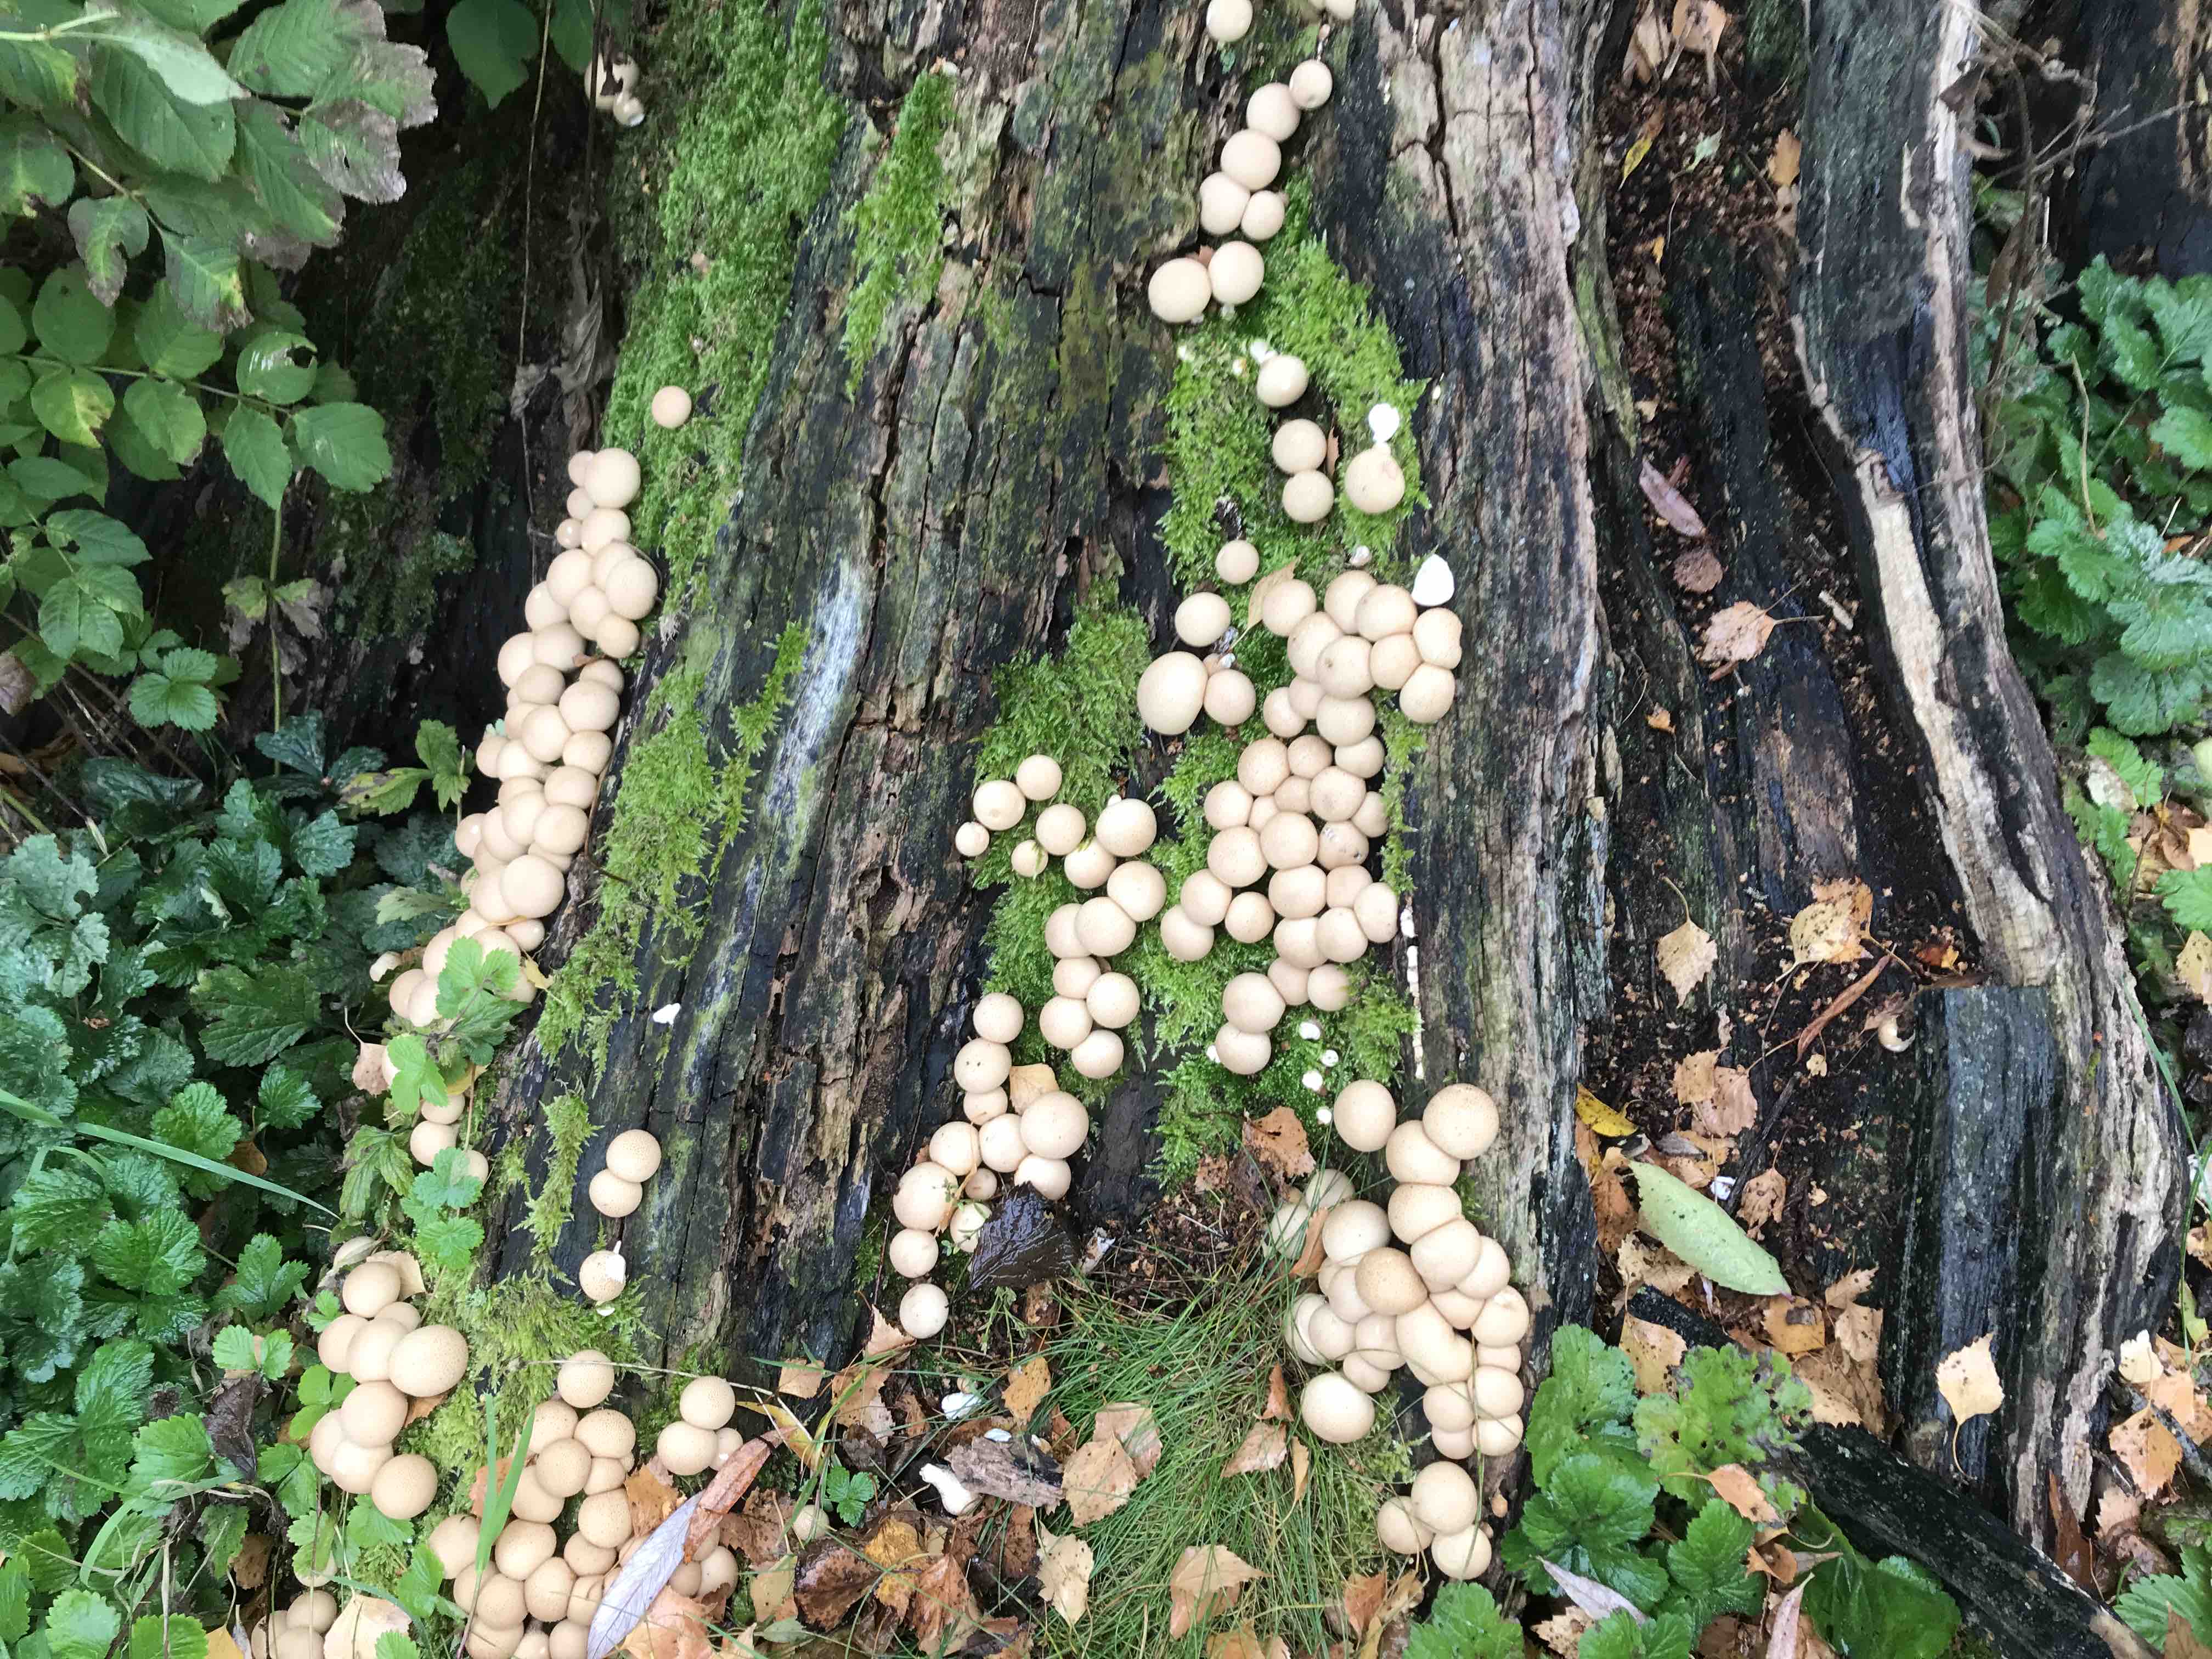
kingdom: Fungi
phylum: Basidiomycota
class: Agaricomycetes
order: Agaricales
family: Lycoperdaceae
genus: Apioperdon
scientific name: Apioperdon pyriforme
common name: pære-støvbold
